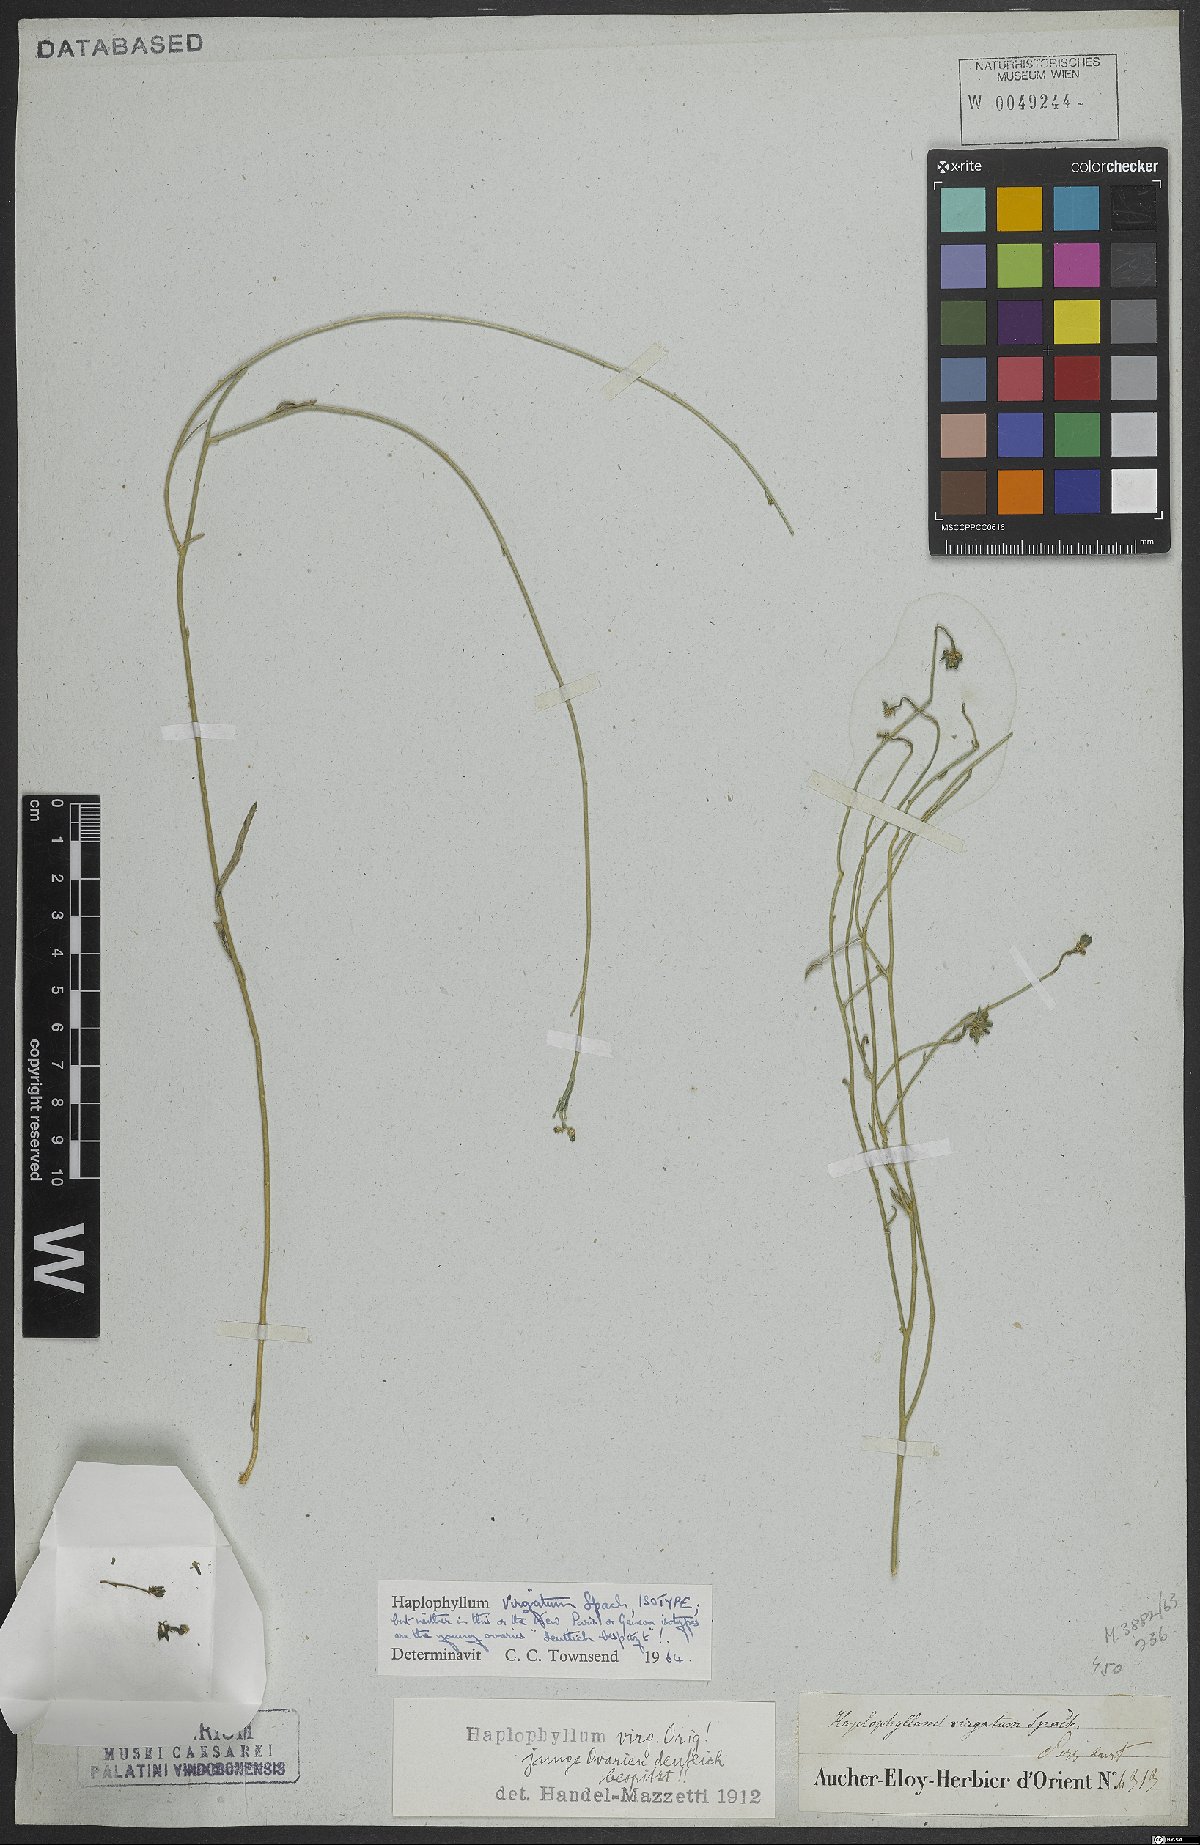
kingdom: Plantae
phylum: Tracheophyta
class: Magnoliopsida
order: Sapindales
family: Rutaceae
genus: Haplophyllum
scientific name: Haplophyllum canaliculatum
